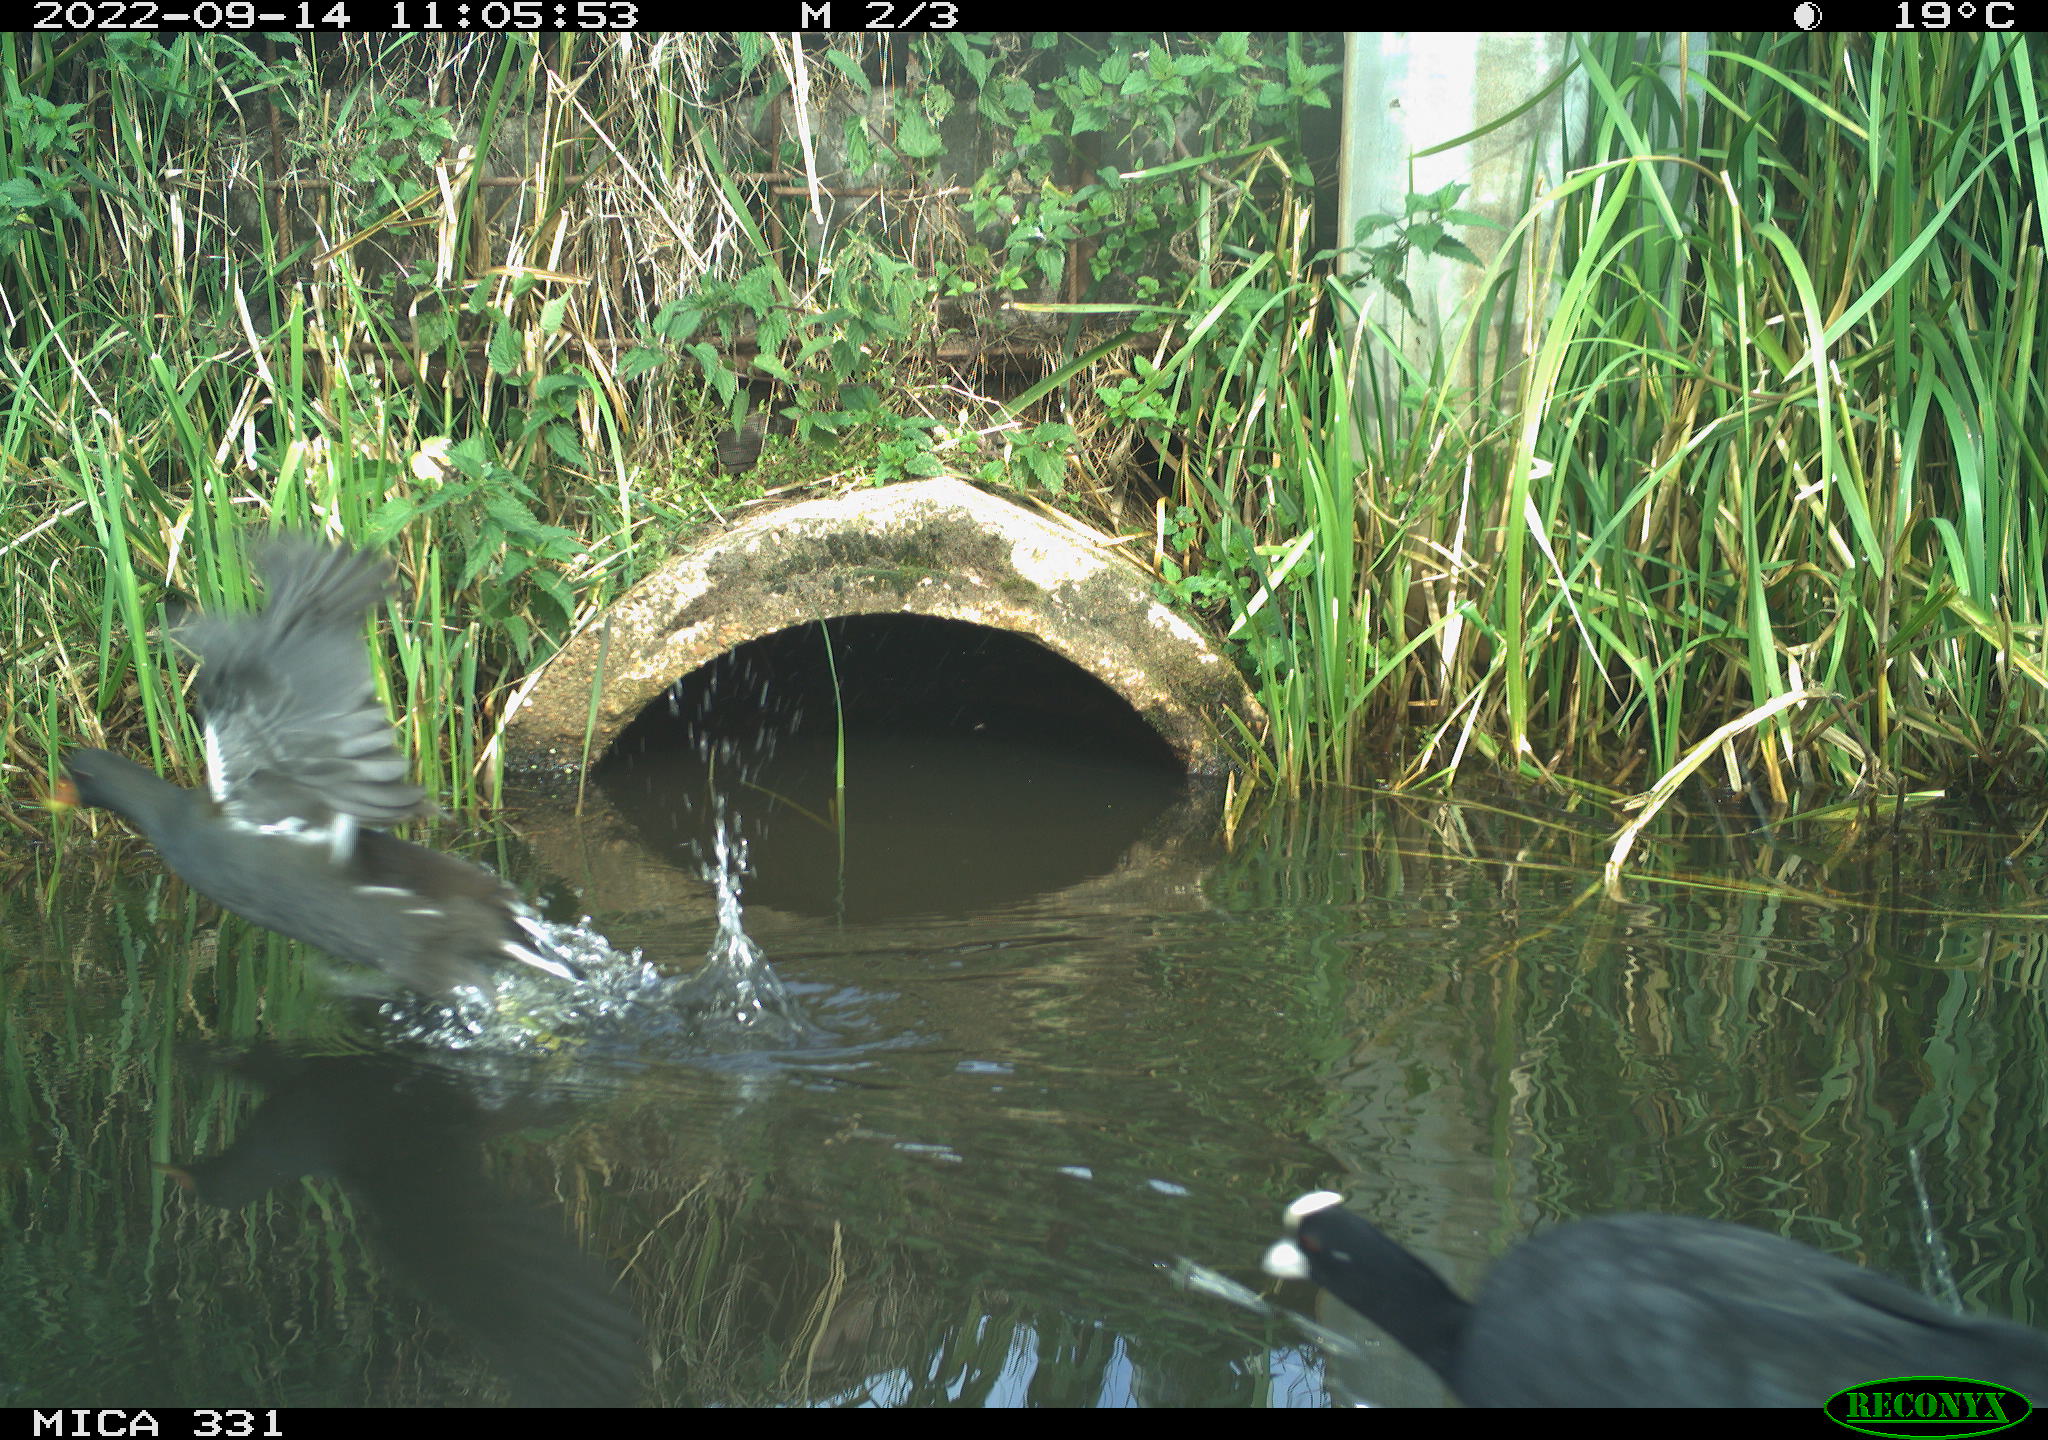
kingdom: Animalia
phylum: Chordata
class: Aves
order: Gruiformes
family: Rallidae
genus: Fulica
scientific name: Fulica atra
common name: Eurasian coot
